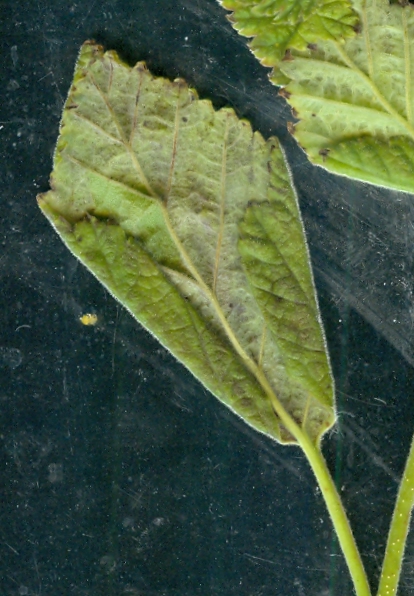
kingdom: Fungi
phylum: Ascomycota
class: Taphrinomycetes
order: Taphrinales
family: Taphrinaceae
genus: Taphrina
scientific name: Taphrina betulina
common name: hekse-sækdug
